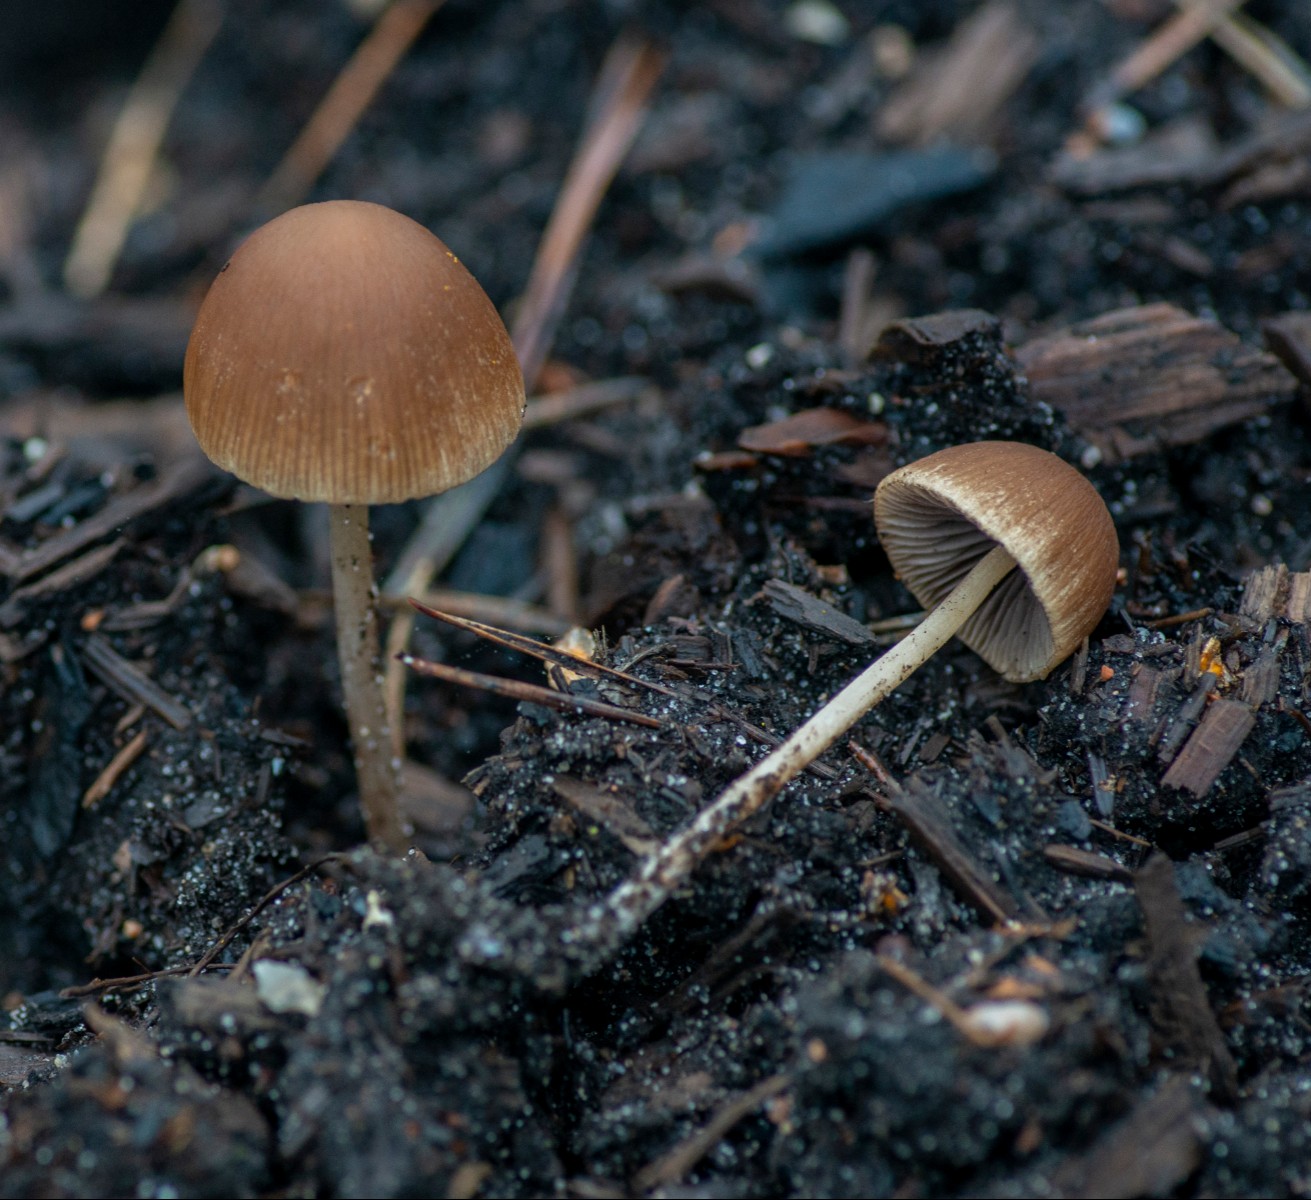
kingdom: Fungi
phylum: Basidiomycota
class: Agaricomycetes
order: Agaricales
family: Psathyrellaceae
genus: Psathyrella
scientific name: Psathyrella
